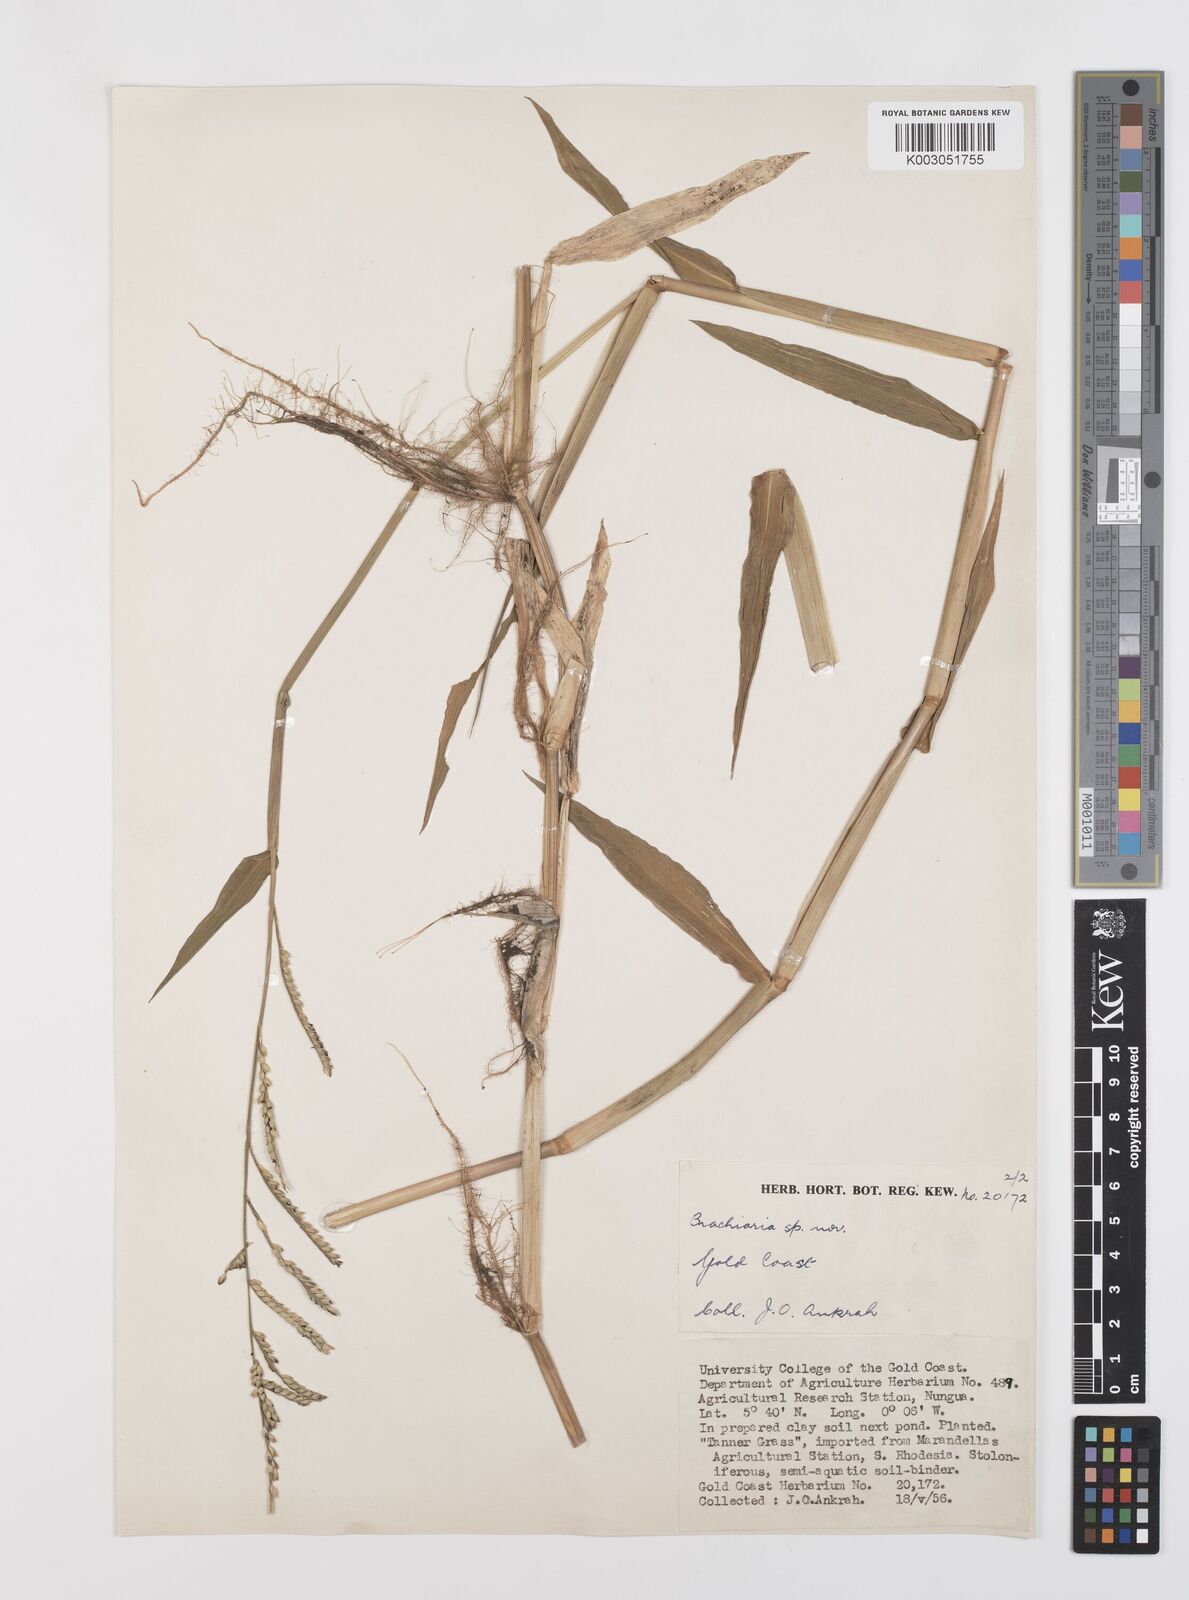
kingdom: Plantae
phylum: Tracheophyta
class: Liliopsida
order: Poales
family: Poaceae
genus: Urochloa
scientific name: Urochloa arrecta
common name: African signalgrass
